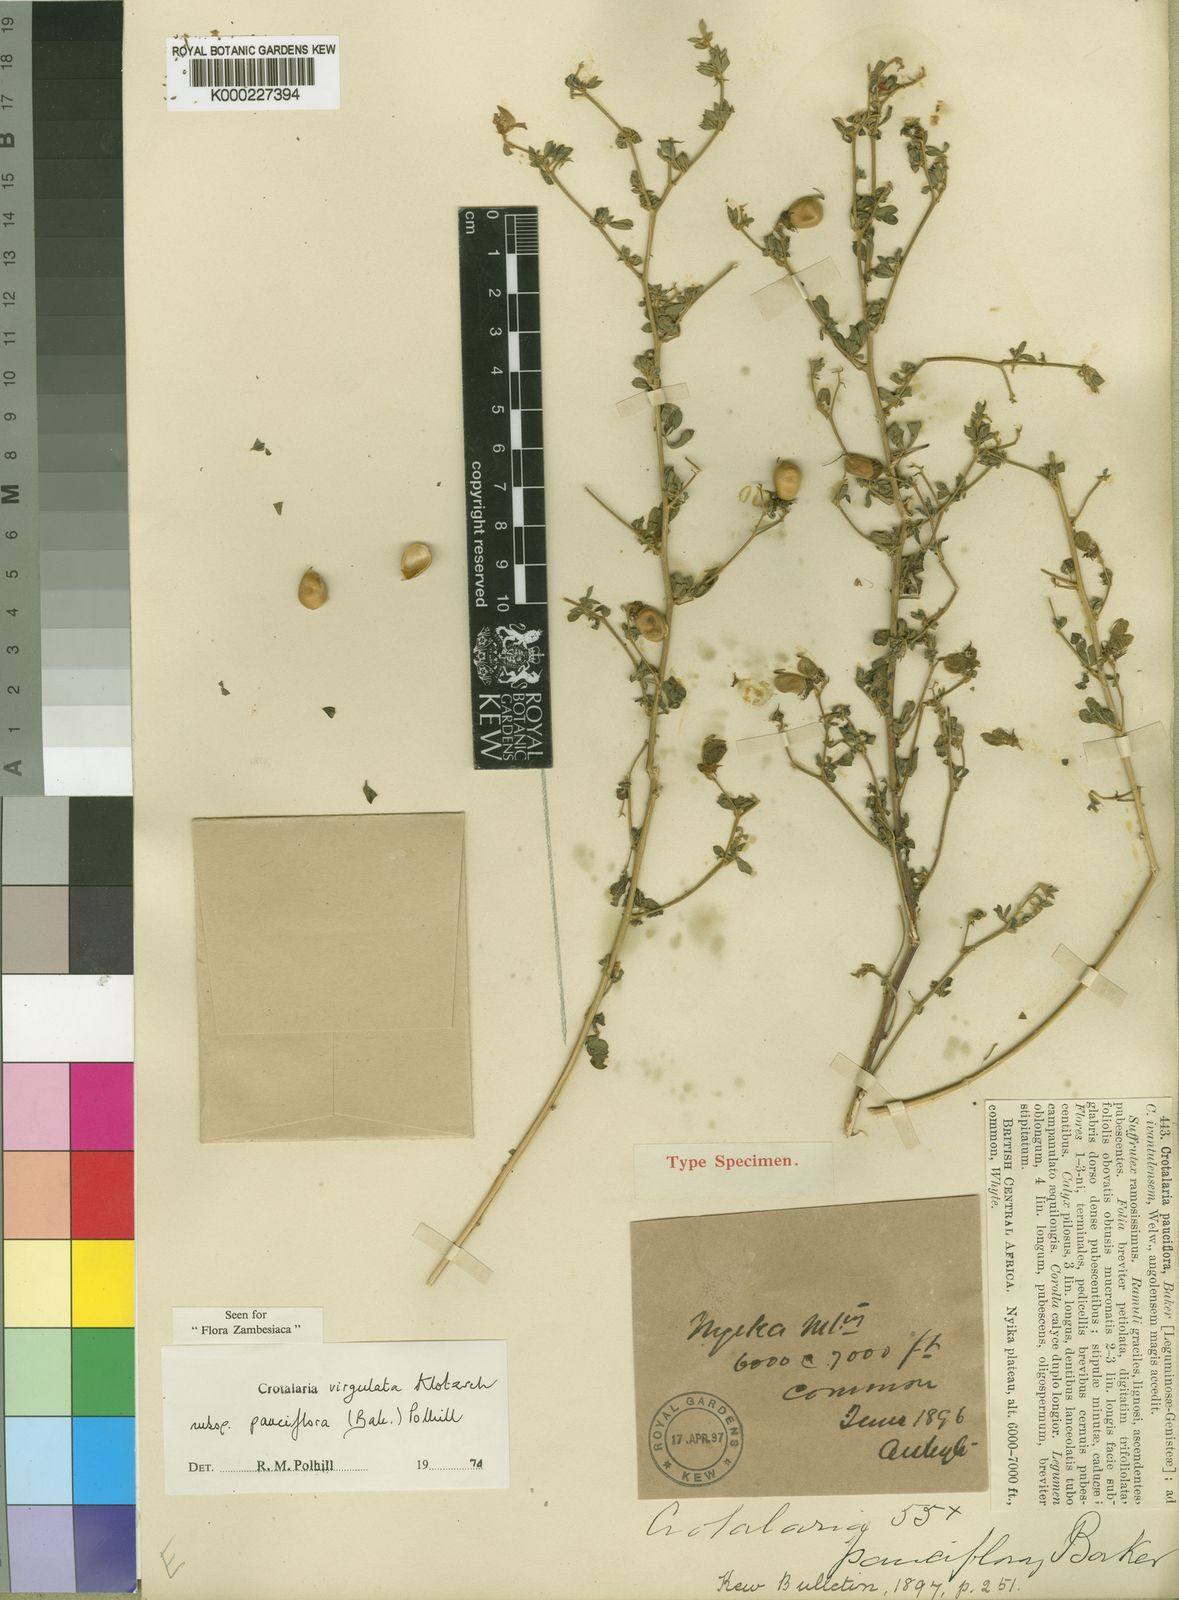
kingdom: Plantae
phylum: Tracheophyta
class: Magnoliopsida
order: Fabales
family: Fabaceae
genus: Crotalaria
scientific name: Crotalaria virgulata
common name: Thicket rattlebox
